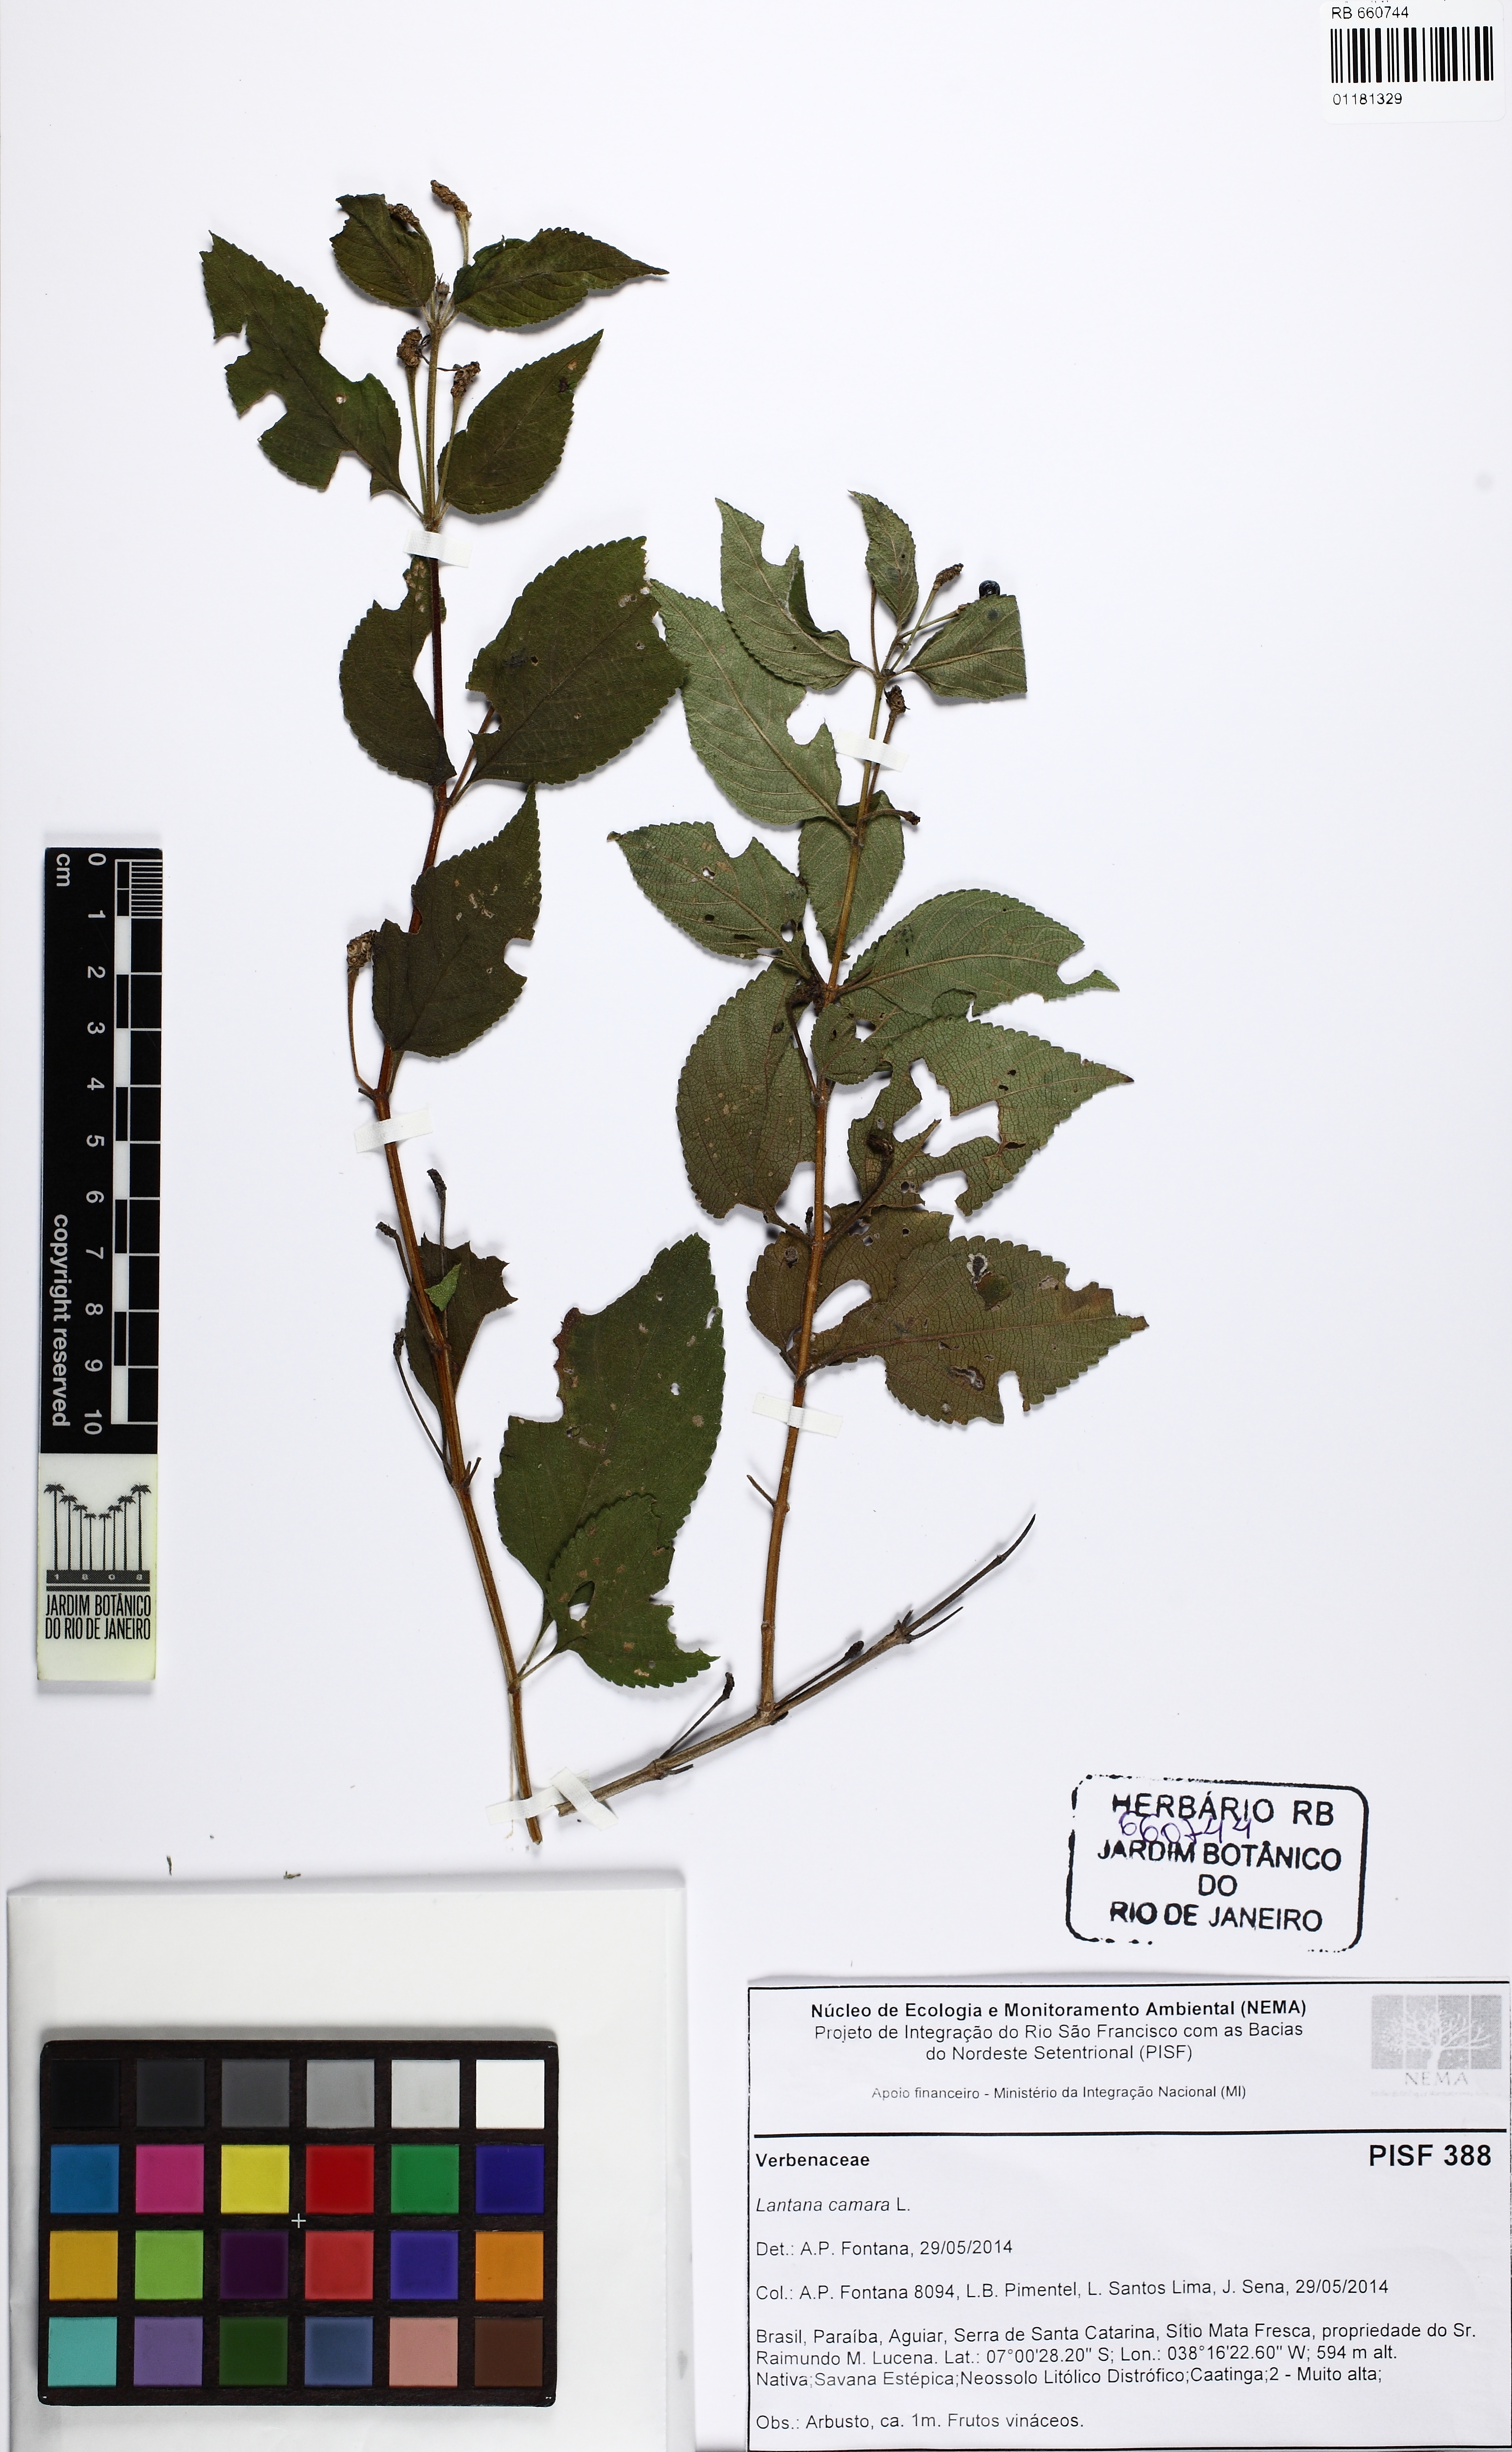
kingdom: Plantae
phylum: Tracheophyta
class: Magnoliopsida
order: Lamiales
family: Verbenaceae
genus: Lantana
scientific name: Lantana camara
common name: Lantana
